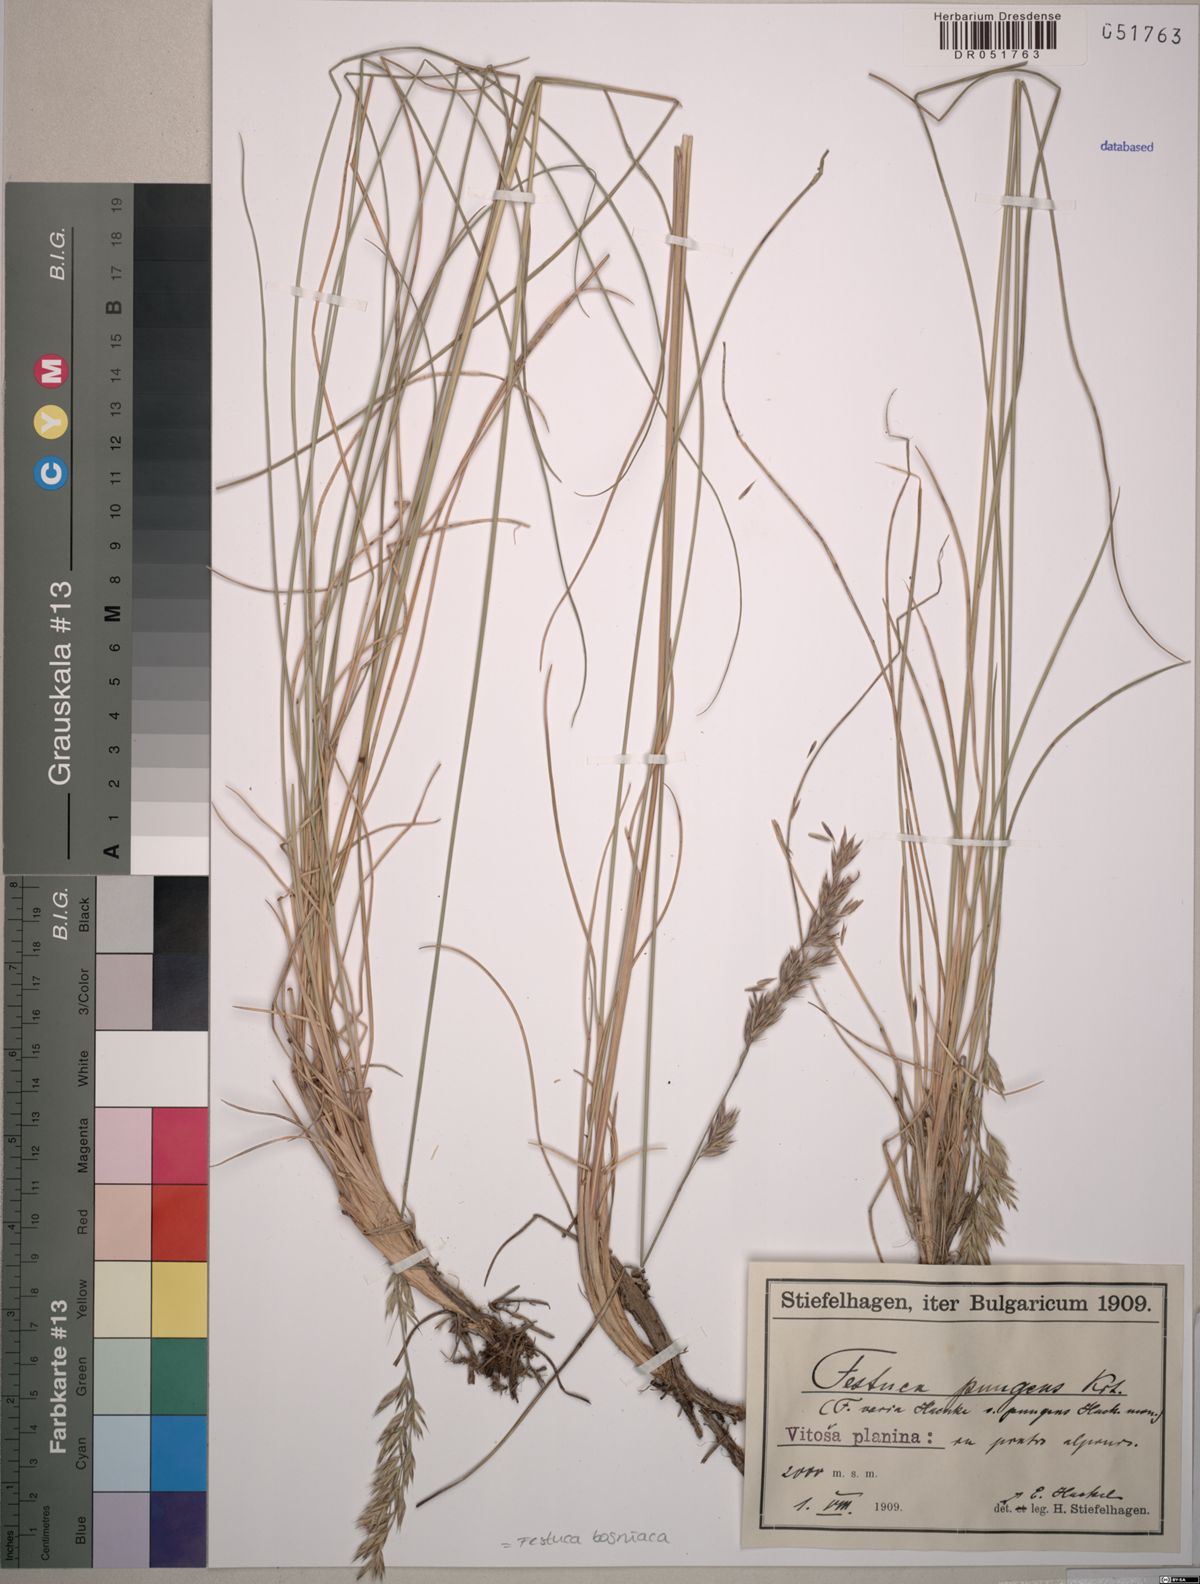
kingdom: Plantae
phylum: Tracheophyta
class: Liliopsida
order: Poales
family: Poaceae
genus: Festuca
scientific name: Festuca bosniaca
